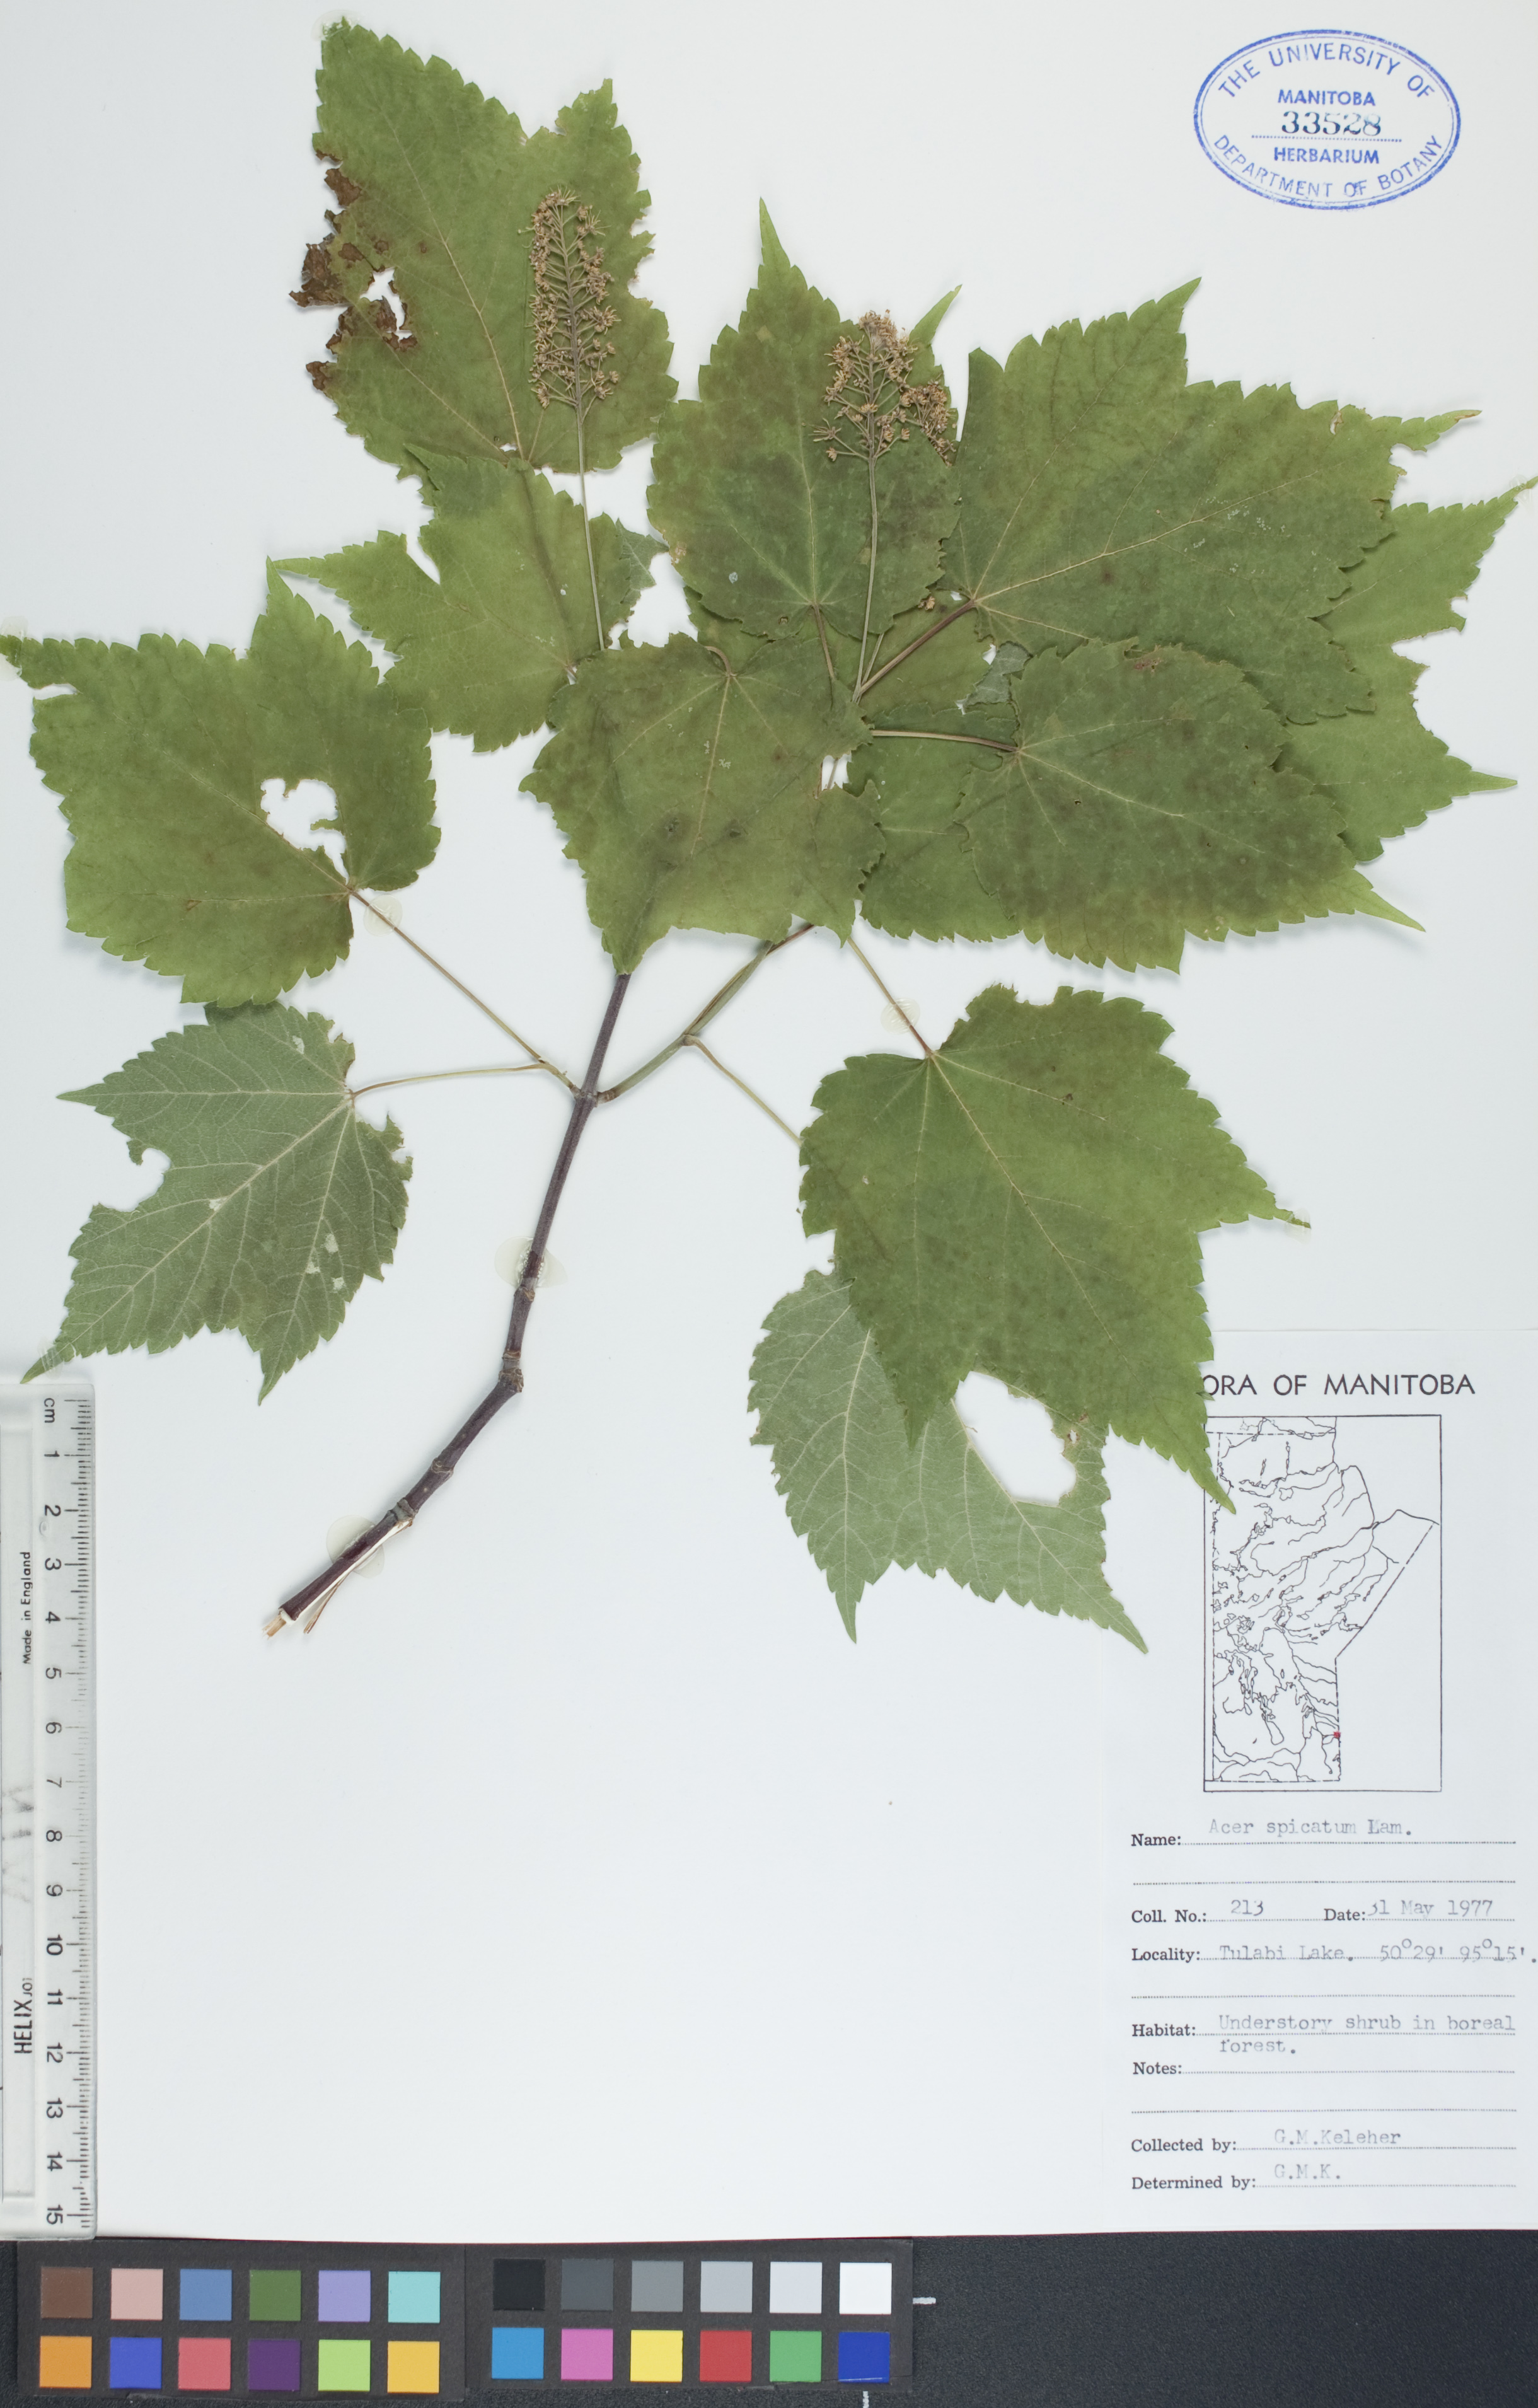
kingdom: Plantae
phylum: Tracheophyta
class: Magnoliopsida
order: Sapindales
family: Sapindaceae
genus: Acer
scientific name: Acer spicatum
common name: Mountain maple
